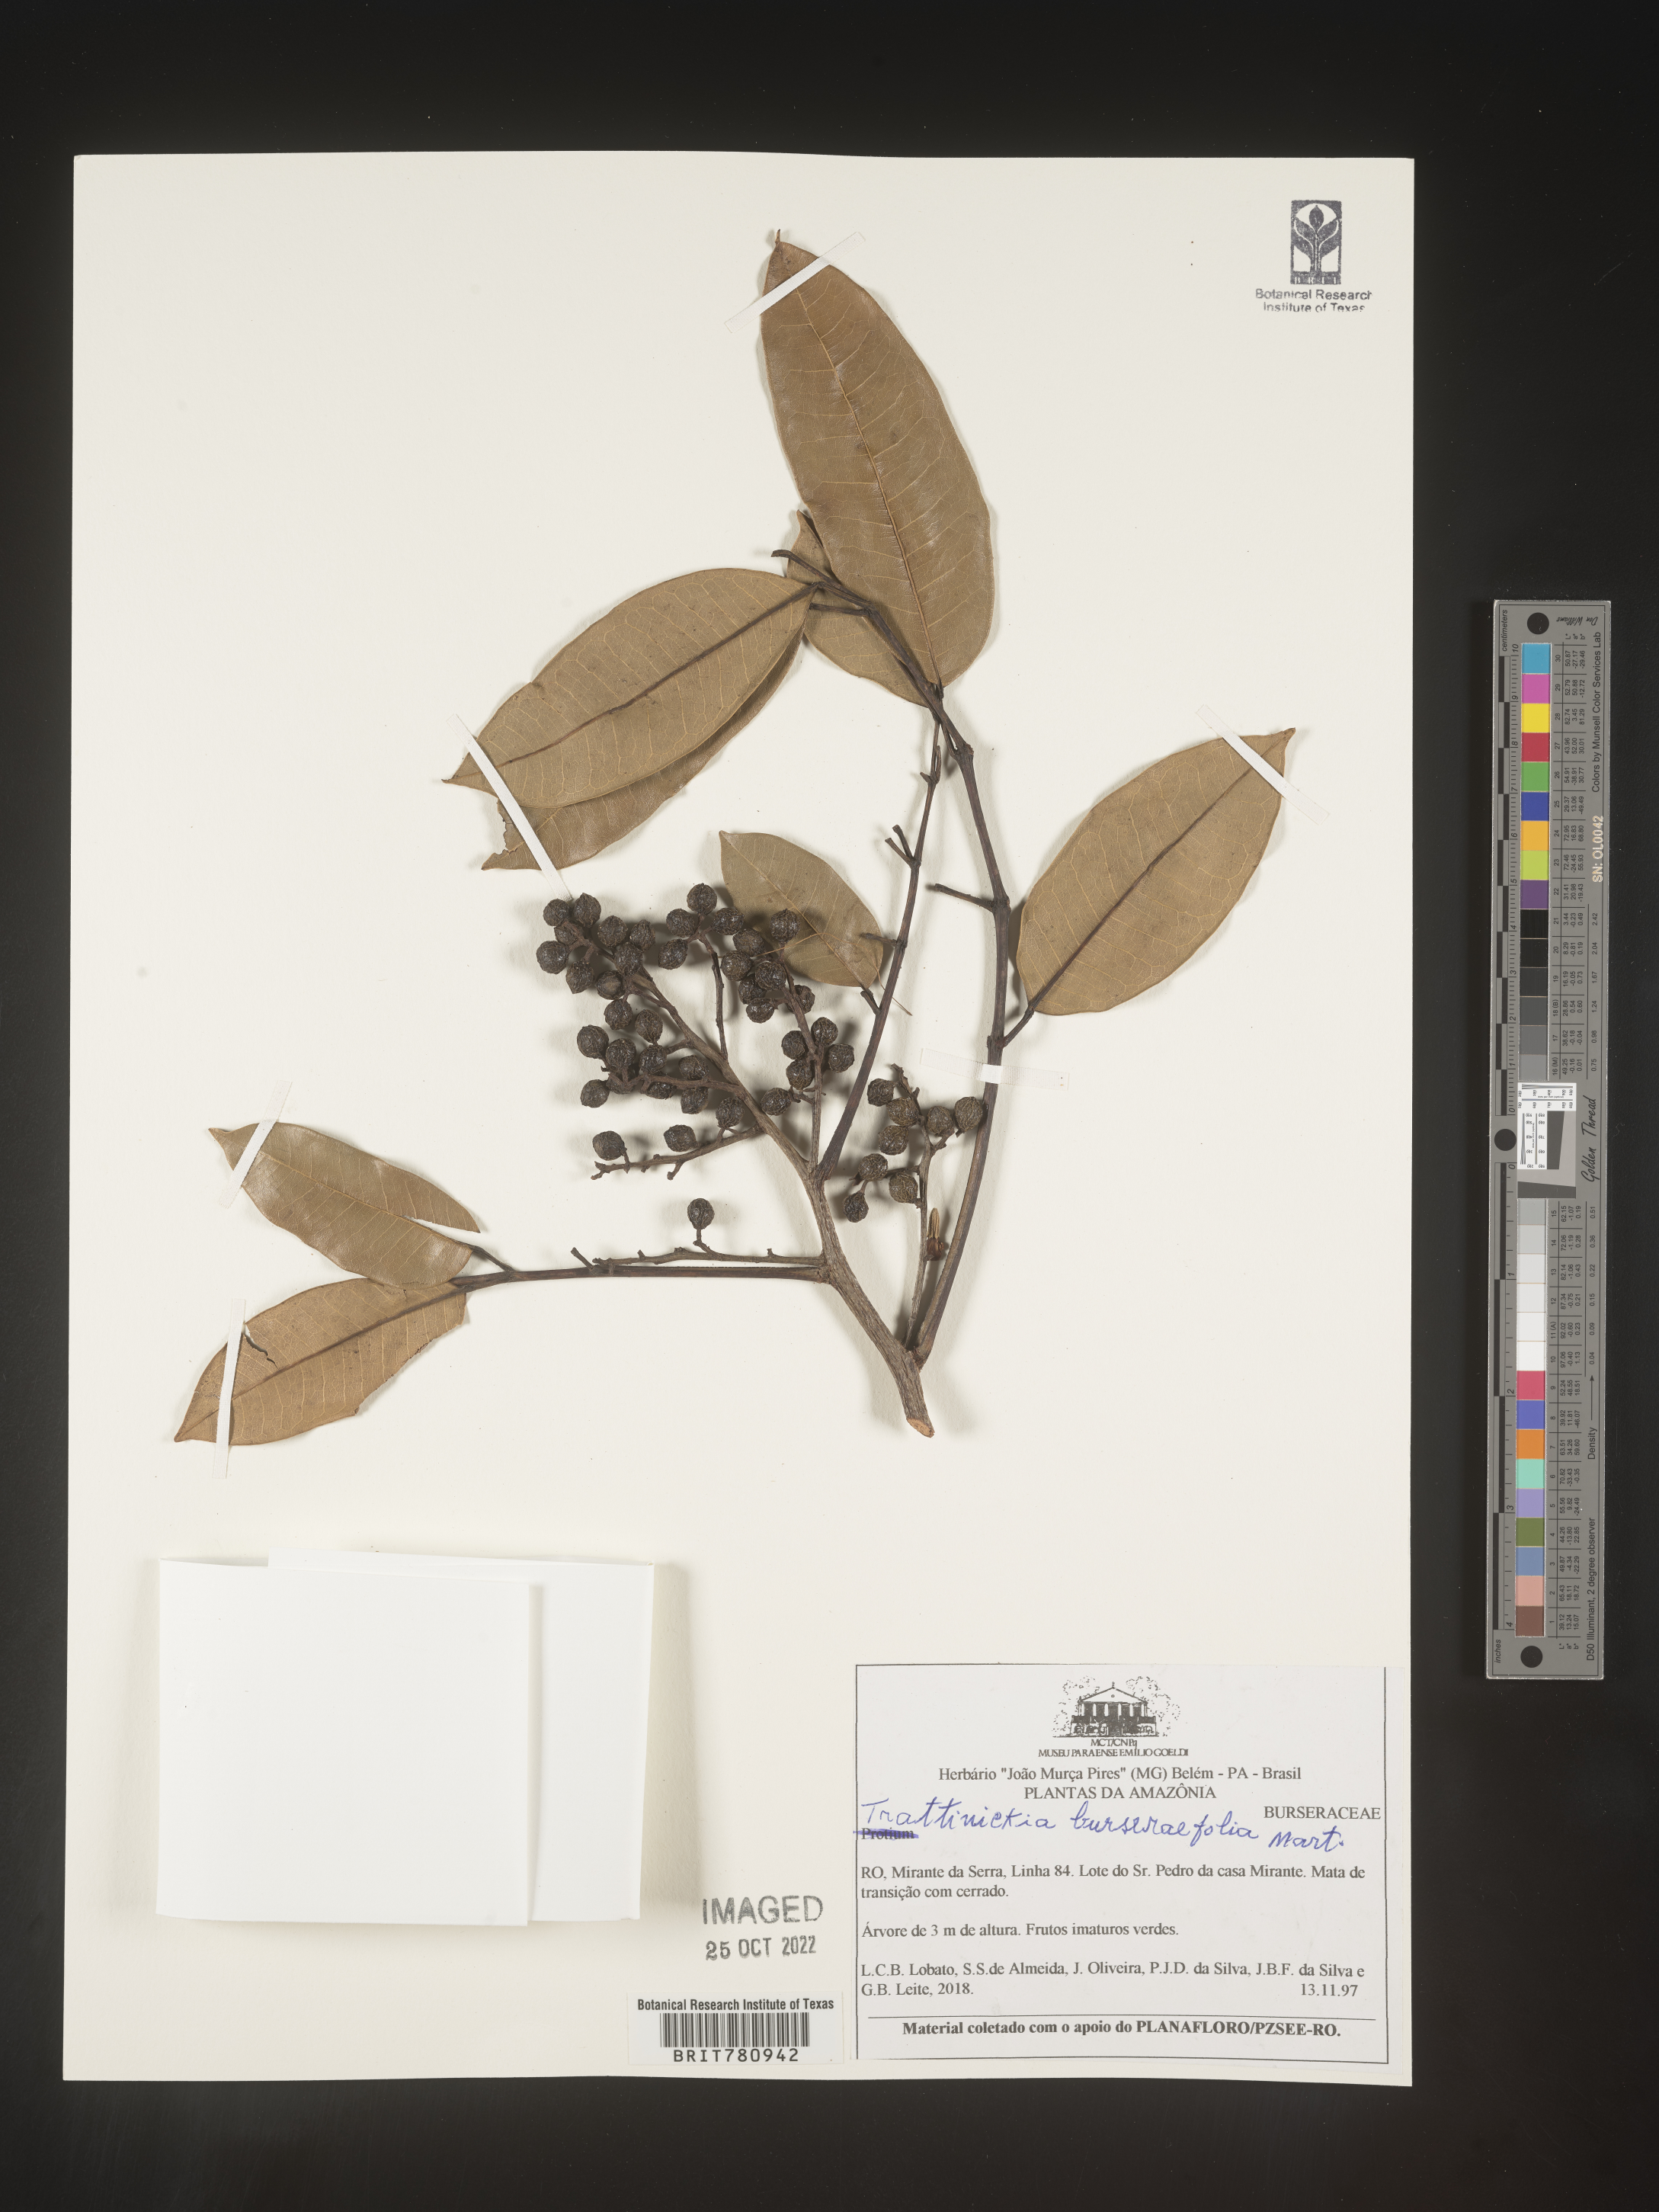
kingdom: Plantae
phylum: Tracheophyta
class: Magnoliopsida
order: Sapindales
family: Burseraceae
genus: Trattinnickia
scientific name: Trattinnickia
